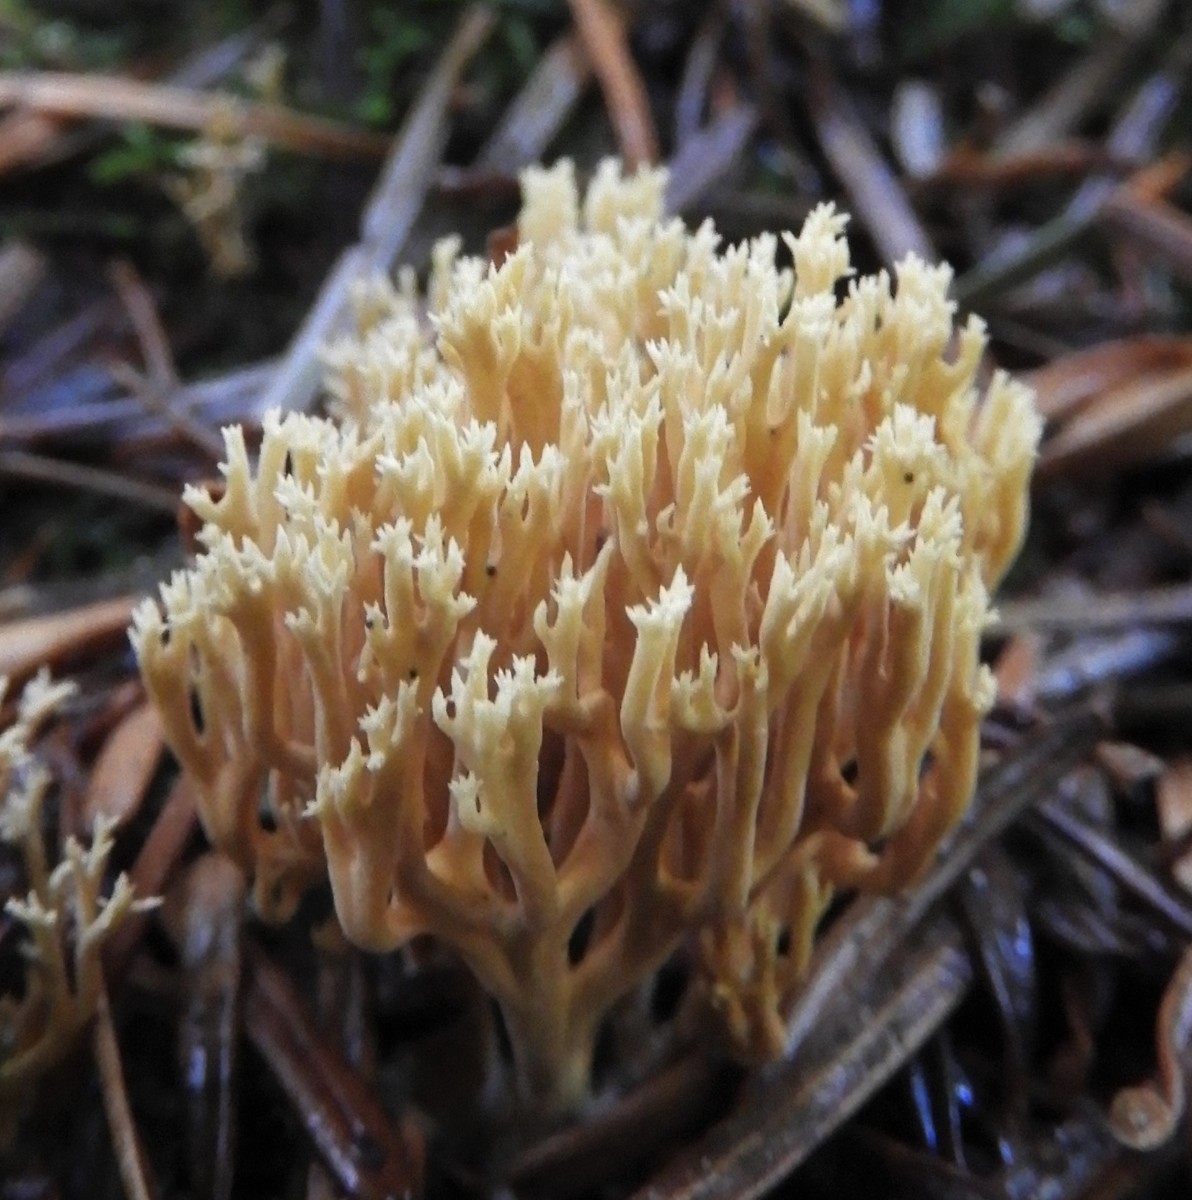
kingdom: Fungi
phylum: Basidiomycota
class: Agaricomycetes
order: Gomphales
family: Gomphaceae
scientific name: Gomphaceae
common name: køllekantarelfamilien
